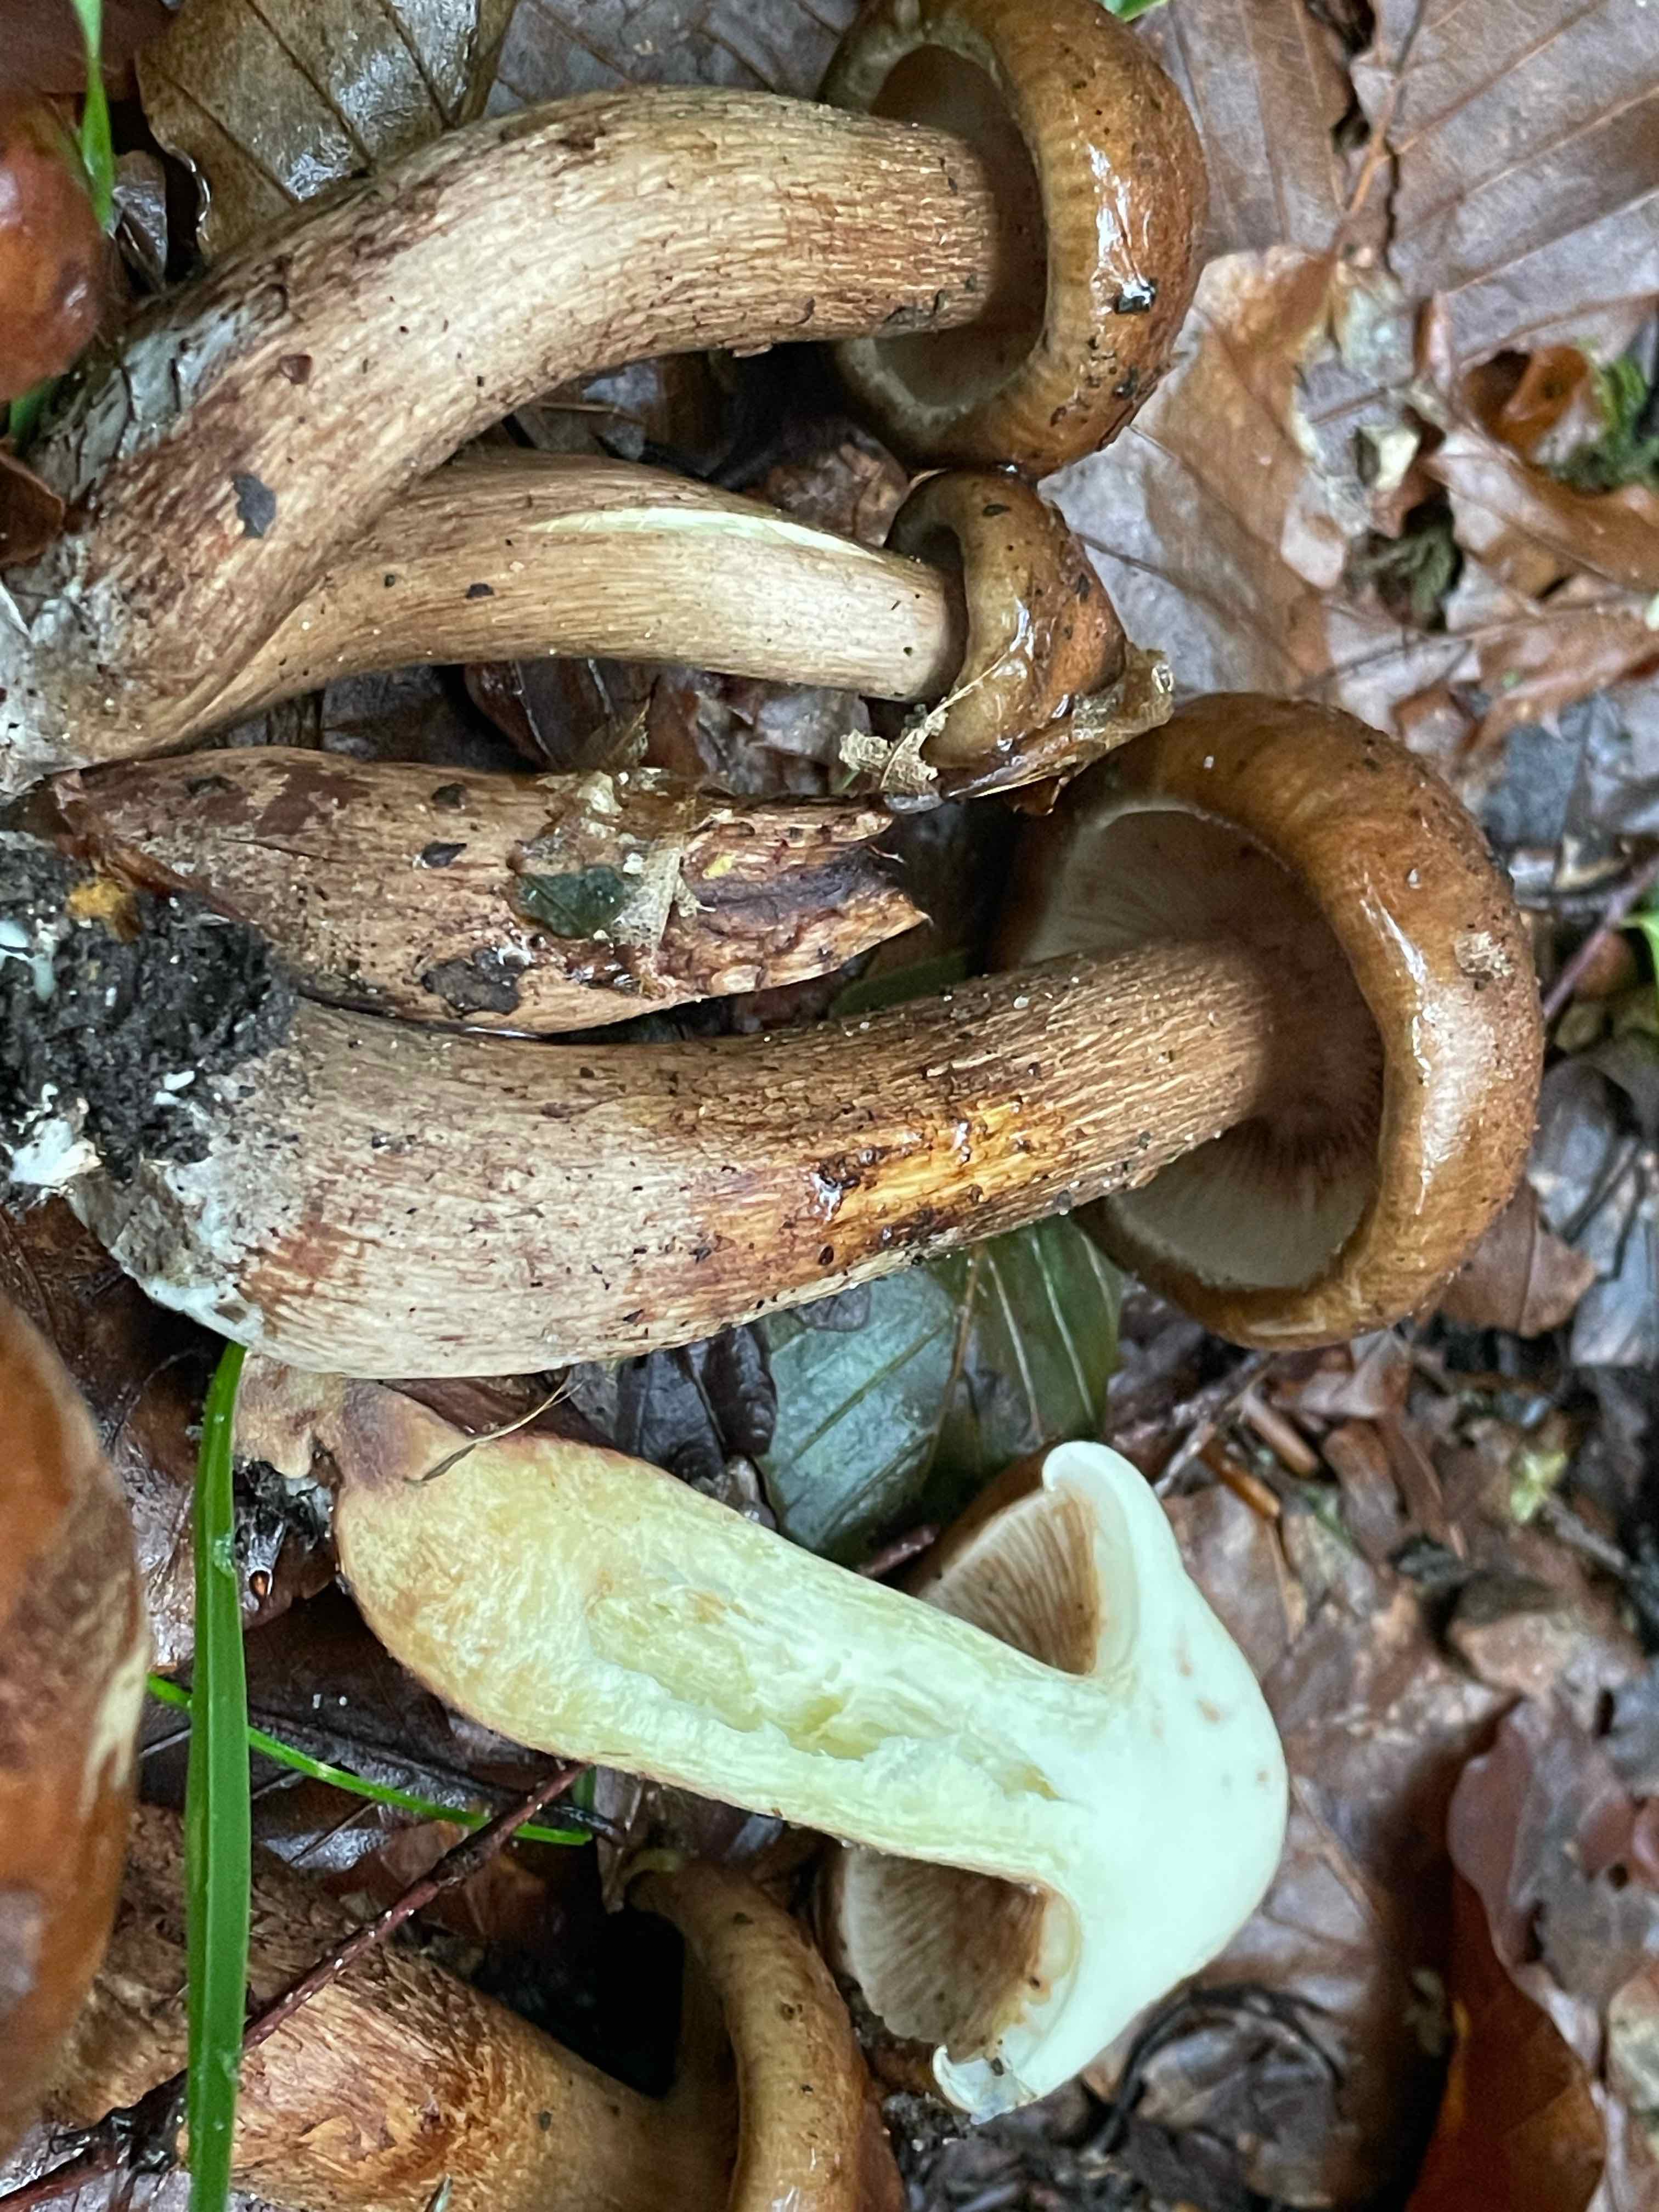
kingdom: Fungi
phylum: Basidiomycota
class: Agaricomycetes
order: Agaricales
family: Tricholomataceae
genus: Tricholoma
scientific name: Tricholoma fulvum
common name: birke-ridderhat
